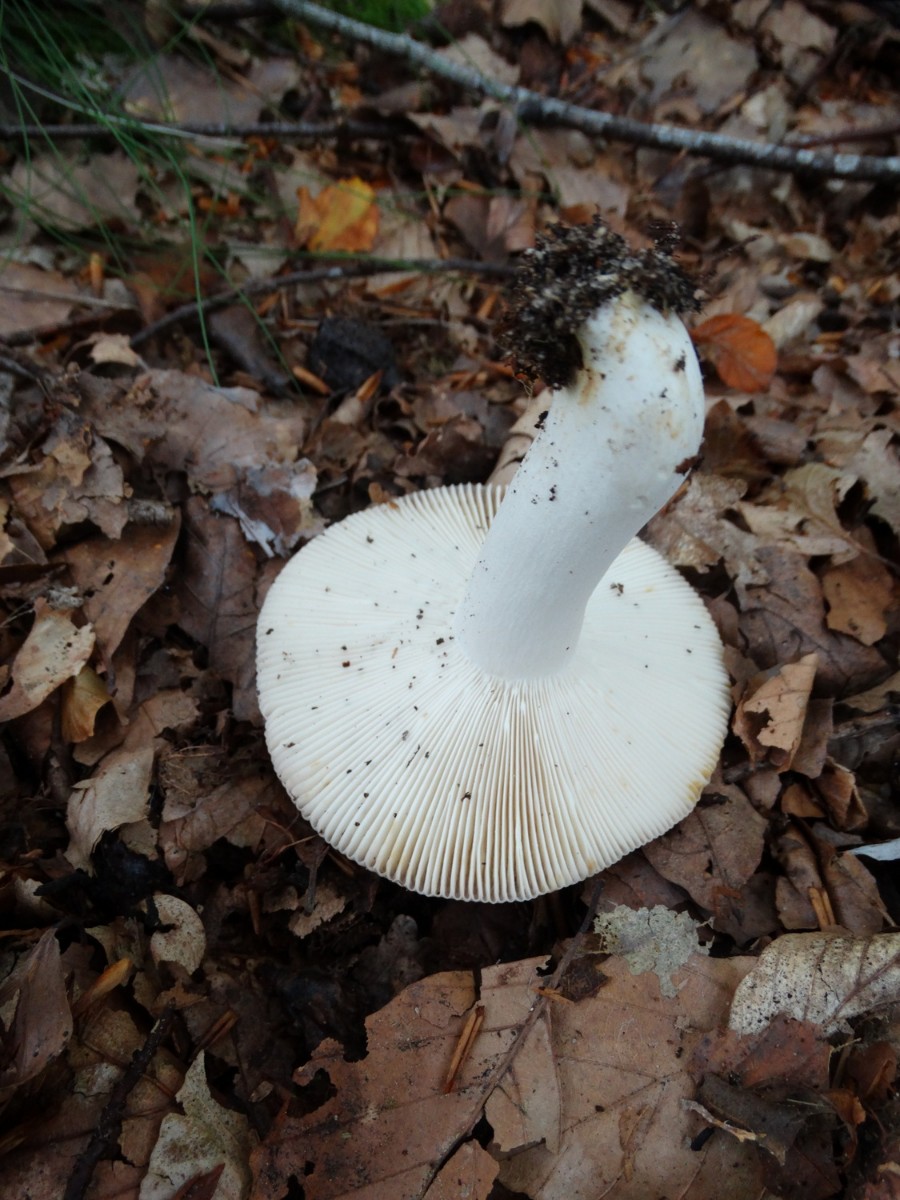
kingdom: Fungi
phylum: Basidiomycota
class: Agaricomycetes
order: Russulales
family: Russulaceae
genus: Russula
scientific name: Russula vesca
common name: spiselig skørhat
